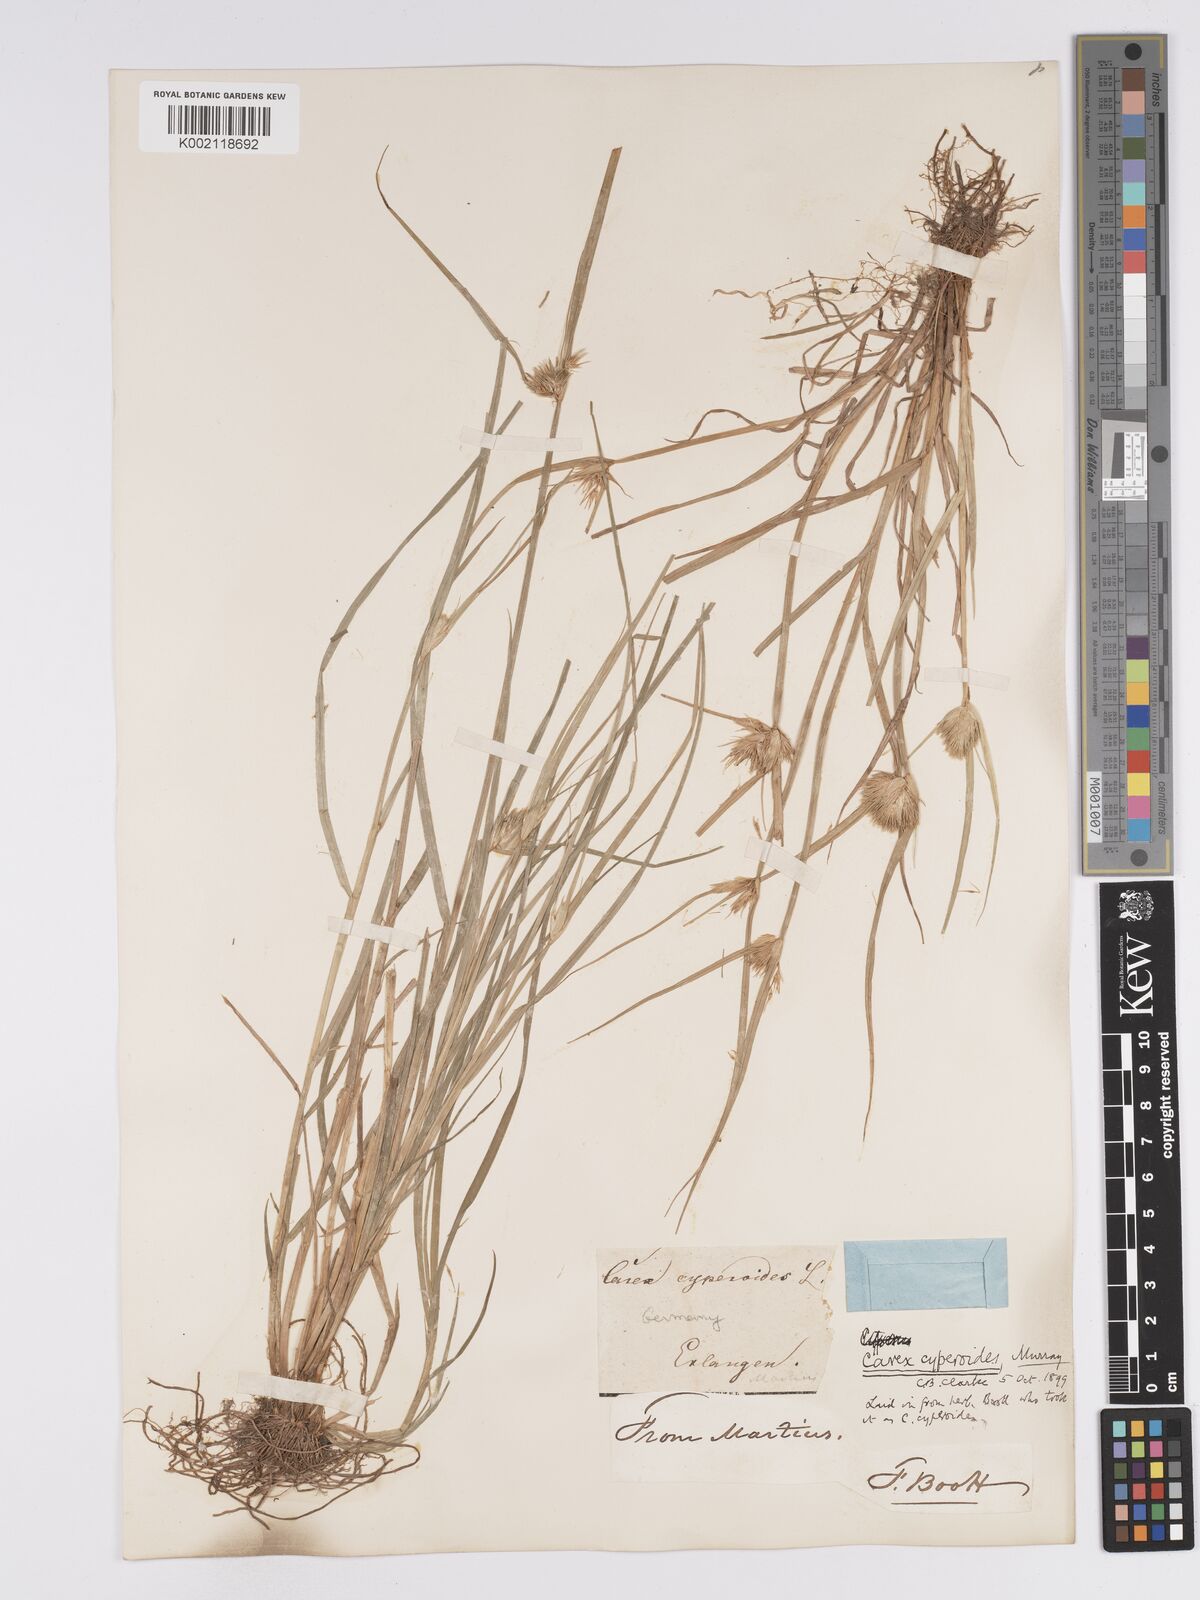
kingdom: Plantae
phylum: Tracheophyta
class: Liliopsida
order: Poales
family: Cyperaceae
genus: Carex
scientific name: Carex bohemica
